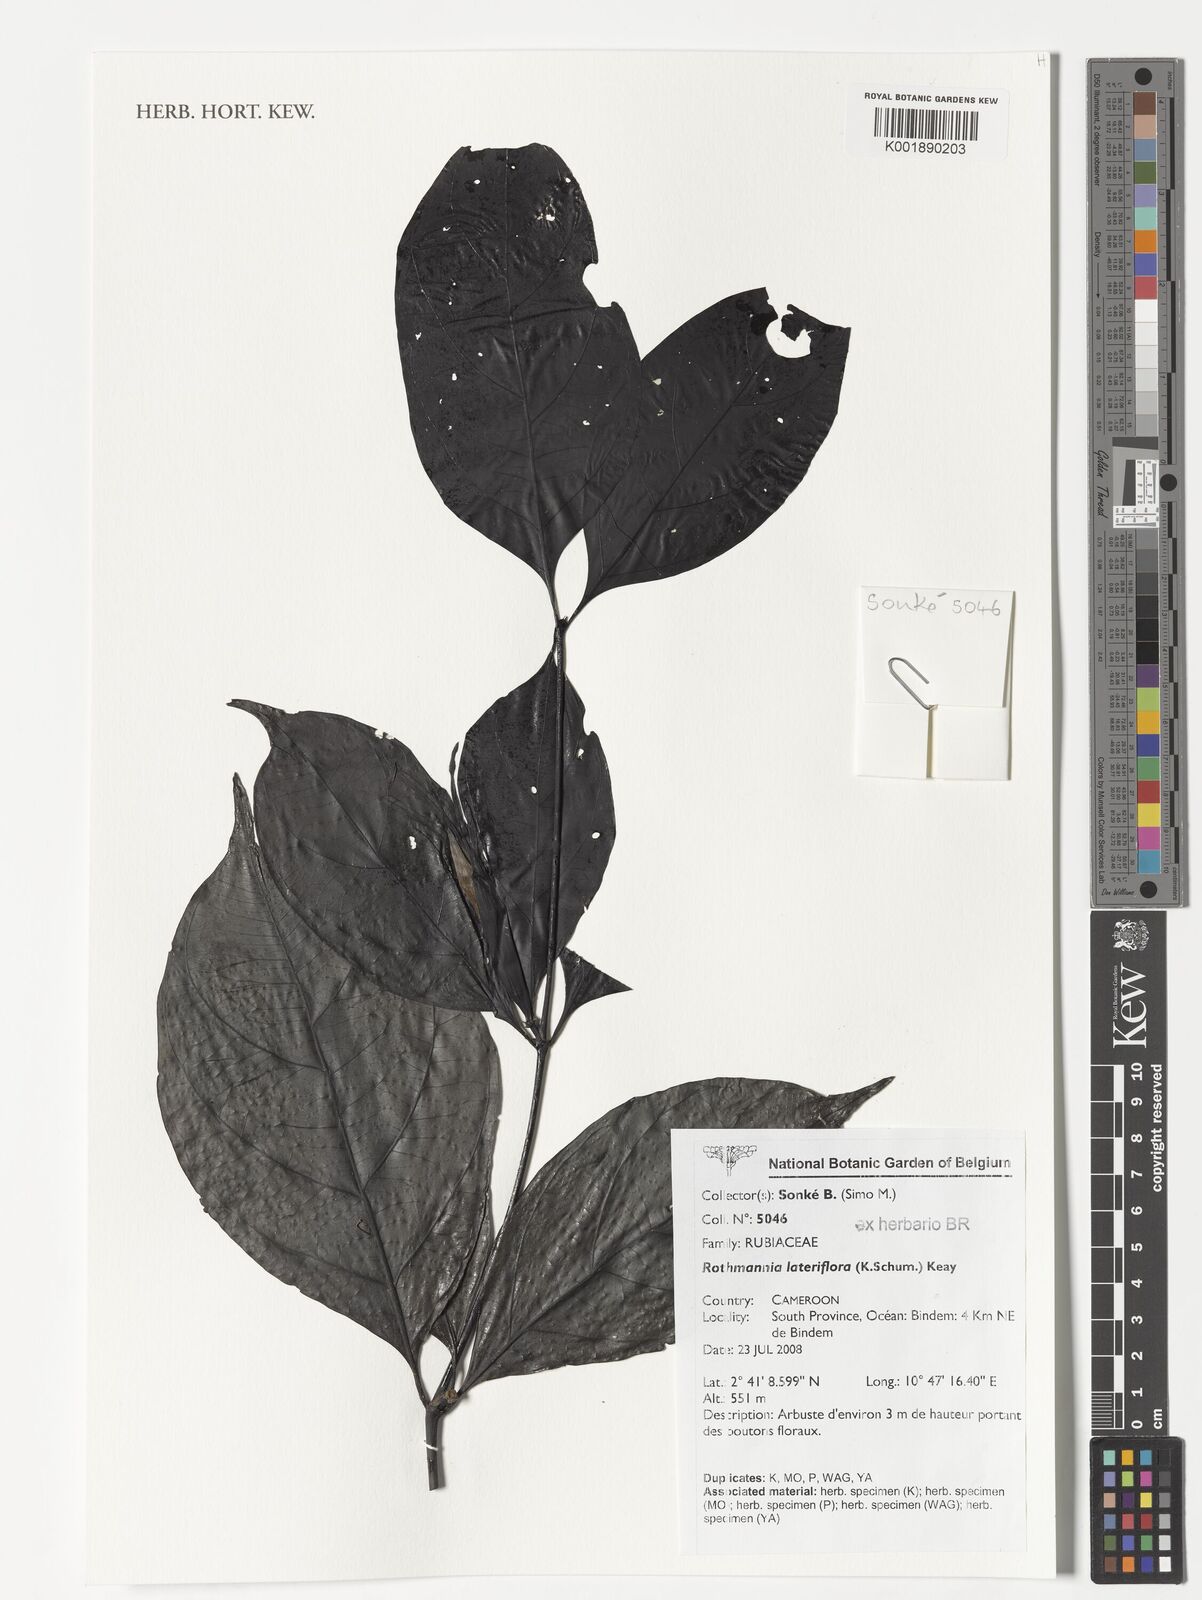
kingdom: Plantae
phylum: Tracheophyta
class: Magnoliopsida
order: Gentianales
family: Rubiaceae
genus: Rothmannia
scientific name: Rothmannia lateriflora
